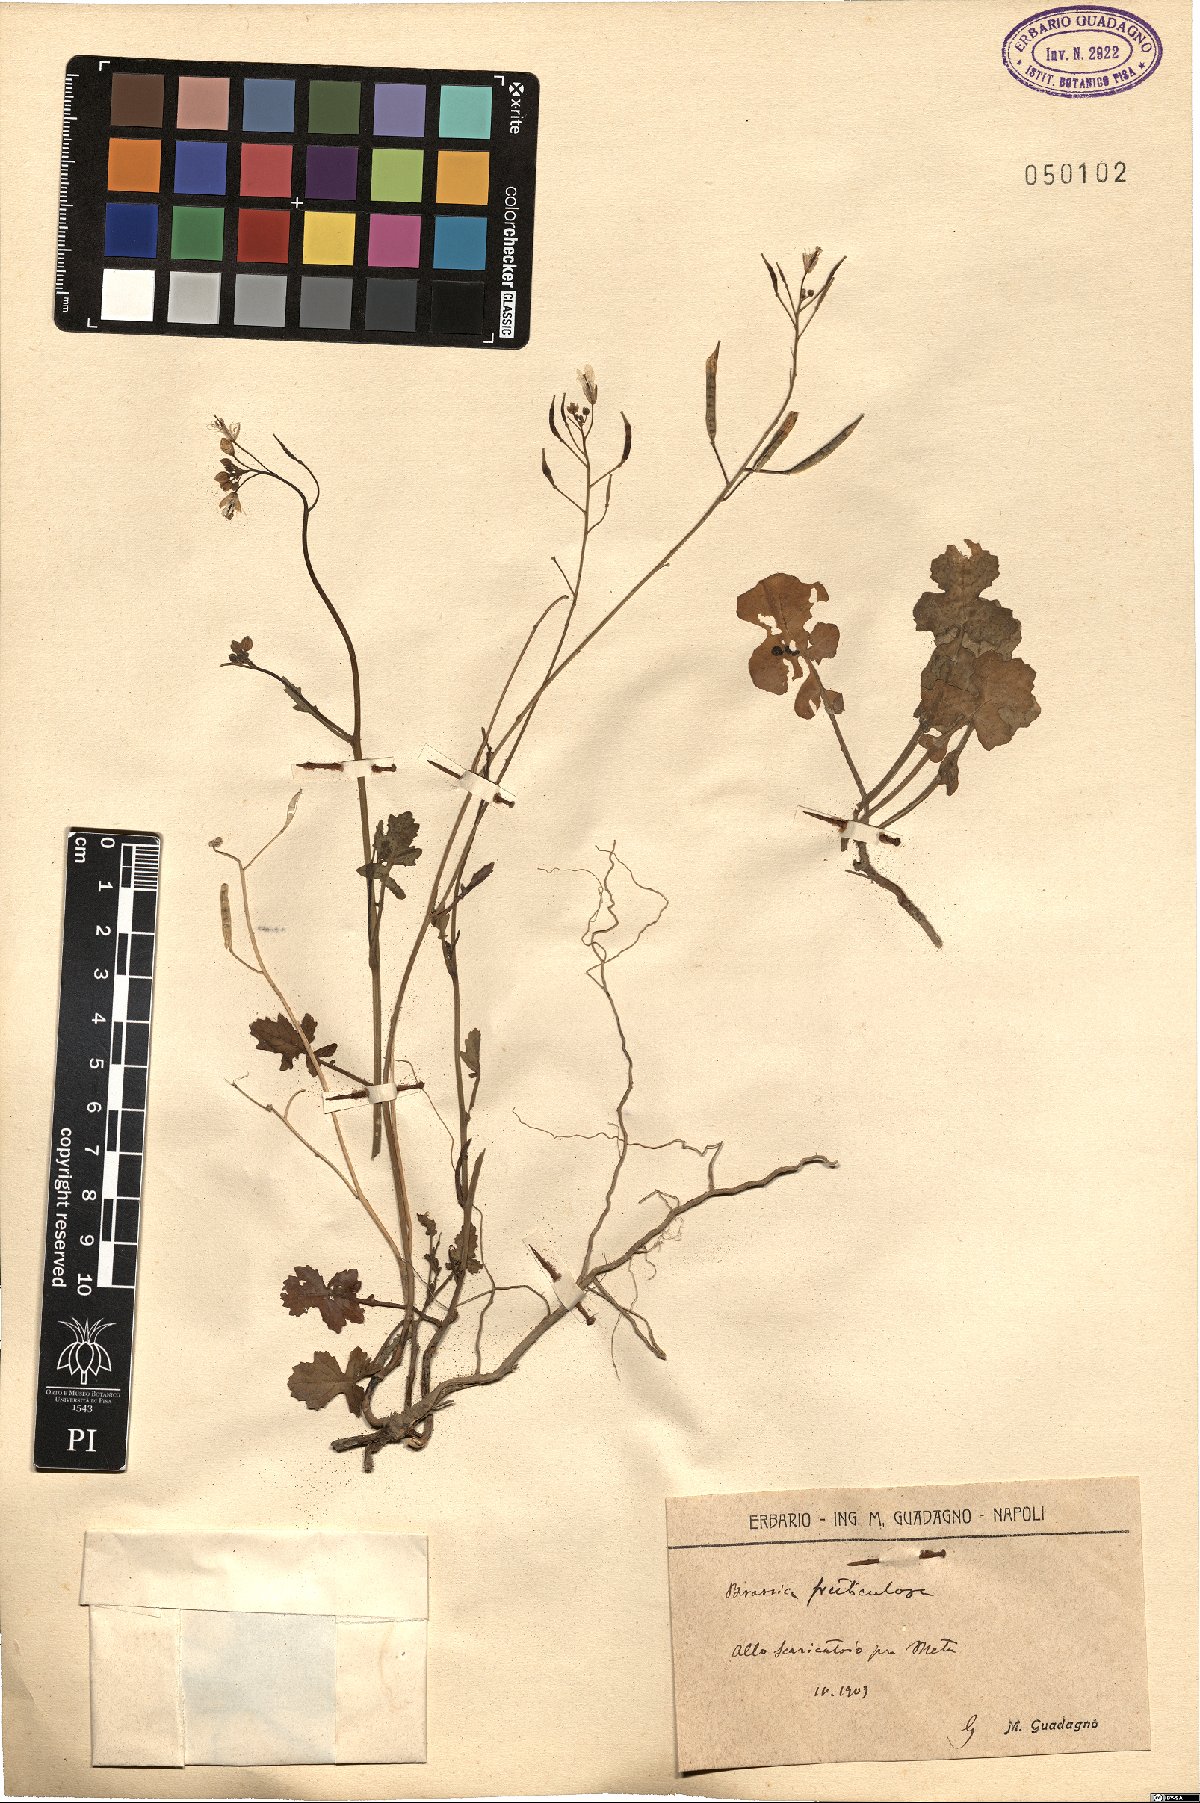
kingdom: Plantae
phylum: Tracheophyta
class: Magnoliopsida
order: Brassicales
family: Brassicaceae
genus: Brassica
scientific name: Brassica fruticulosa
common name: Twiggy turnip
